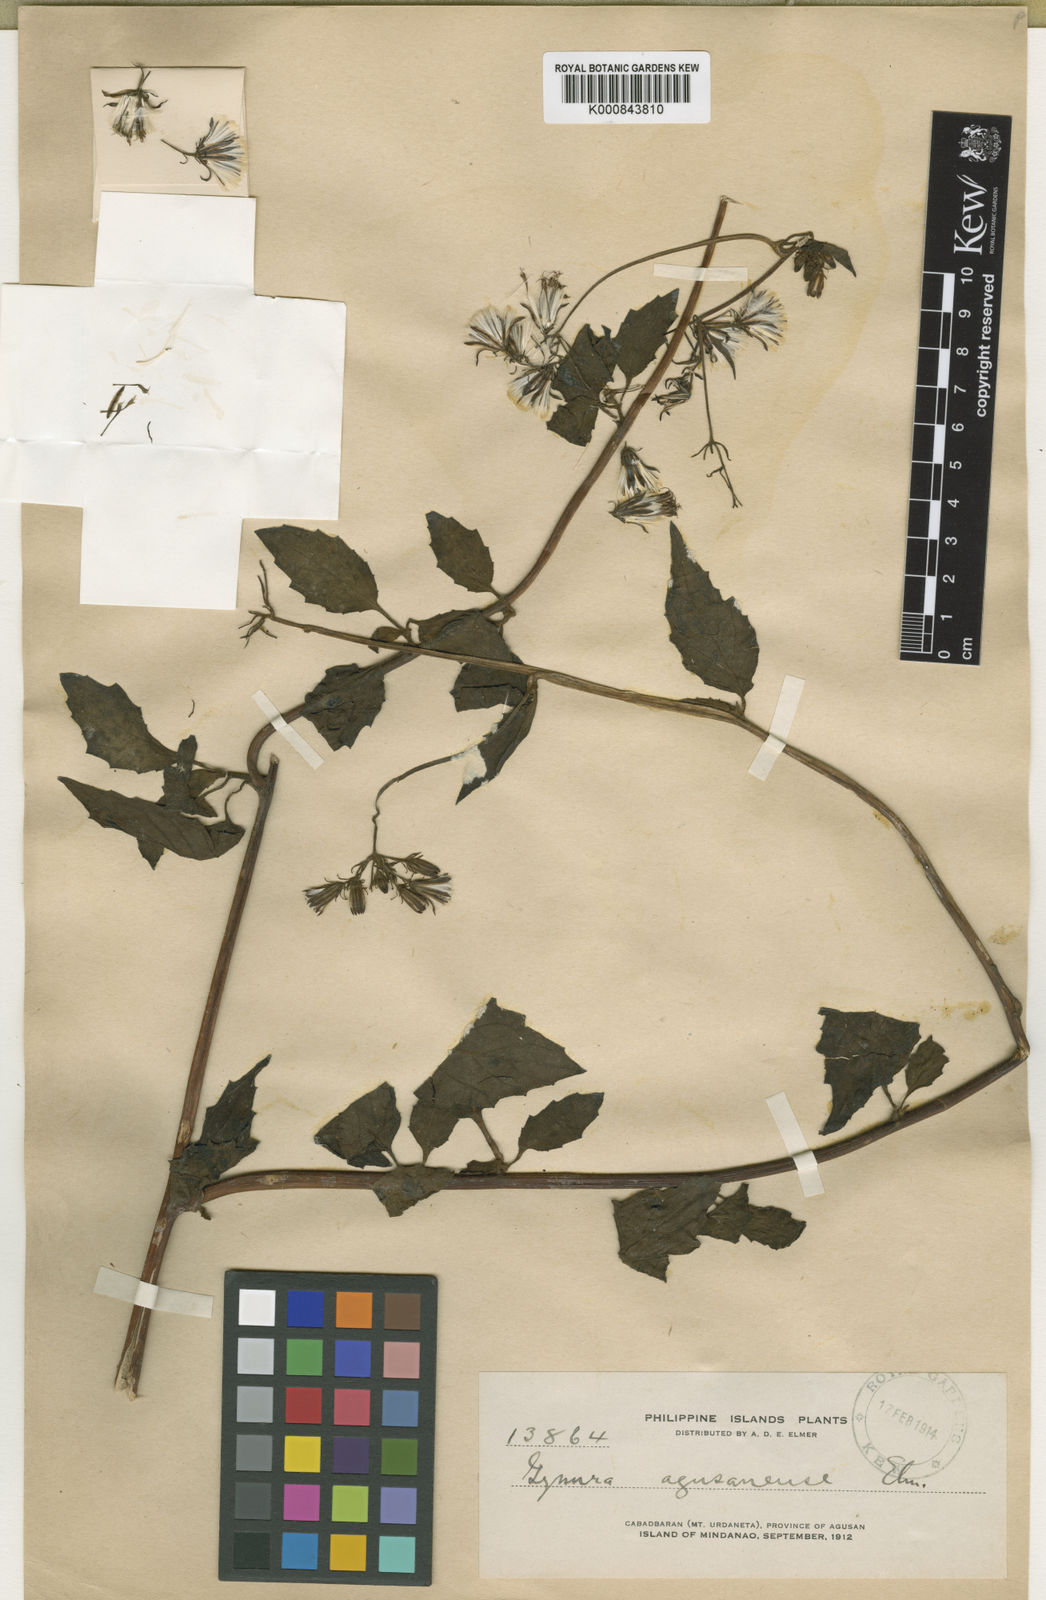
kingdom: Plantae
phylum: Tracheophyta
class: Magnoliopsida
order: Asterales
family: Asteraceae
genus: Gynura
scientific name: Gynura procumbens
